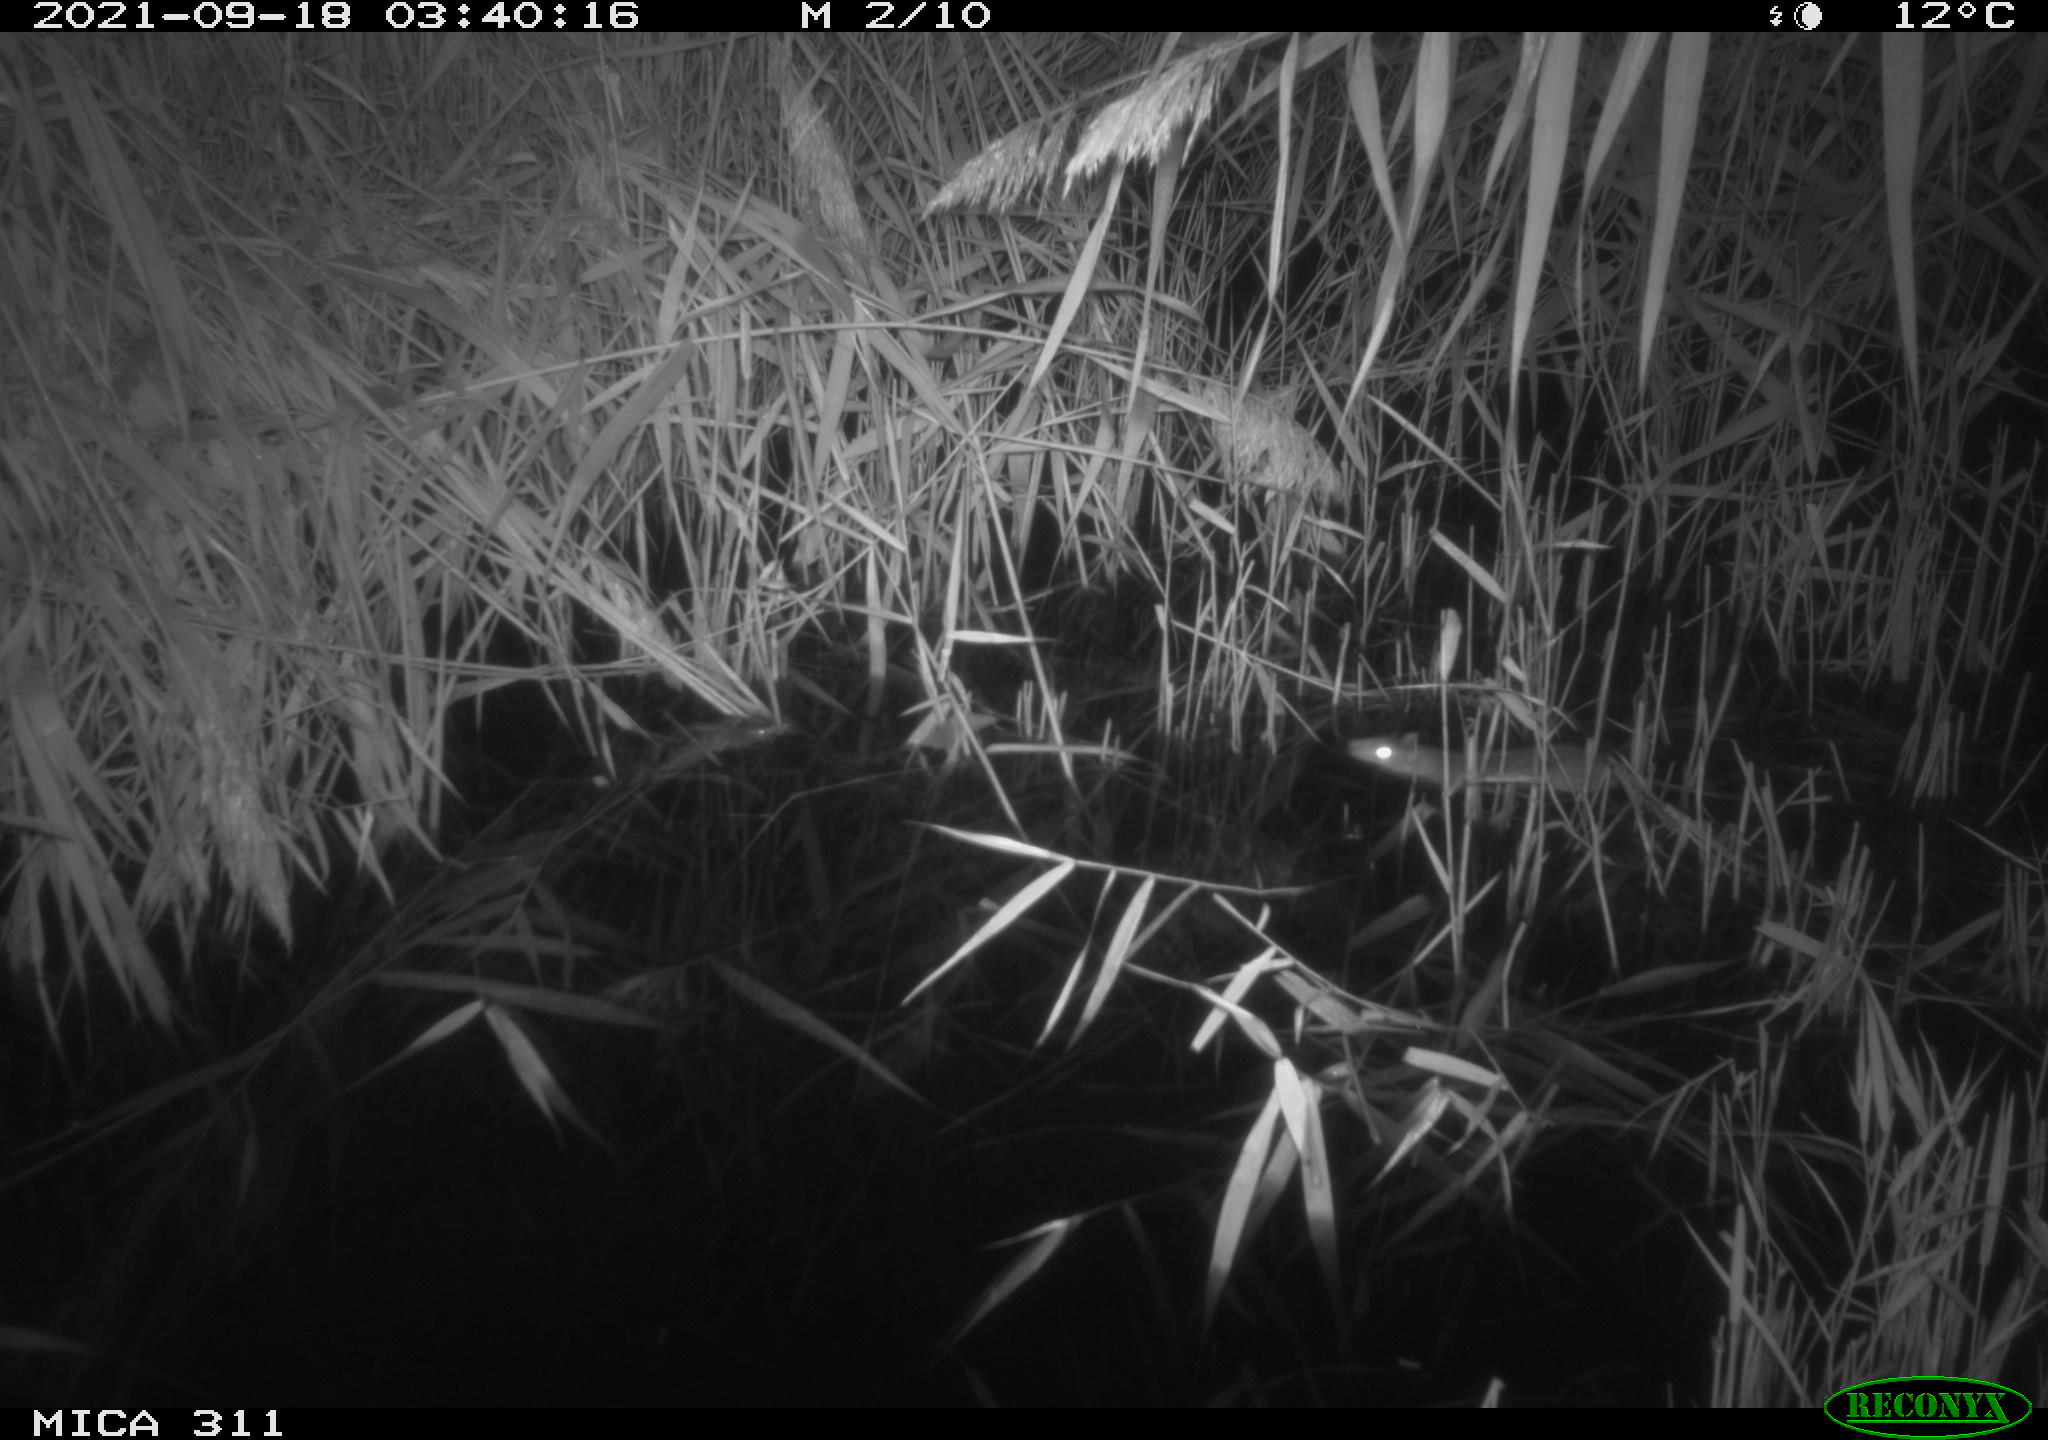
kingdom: Animalia
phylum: Chordata
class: Mammalia
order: Rodentia
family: Muridae
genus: Rattus
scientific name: Rattus norvegicus
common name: Brown rat
